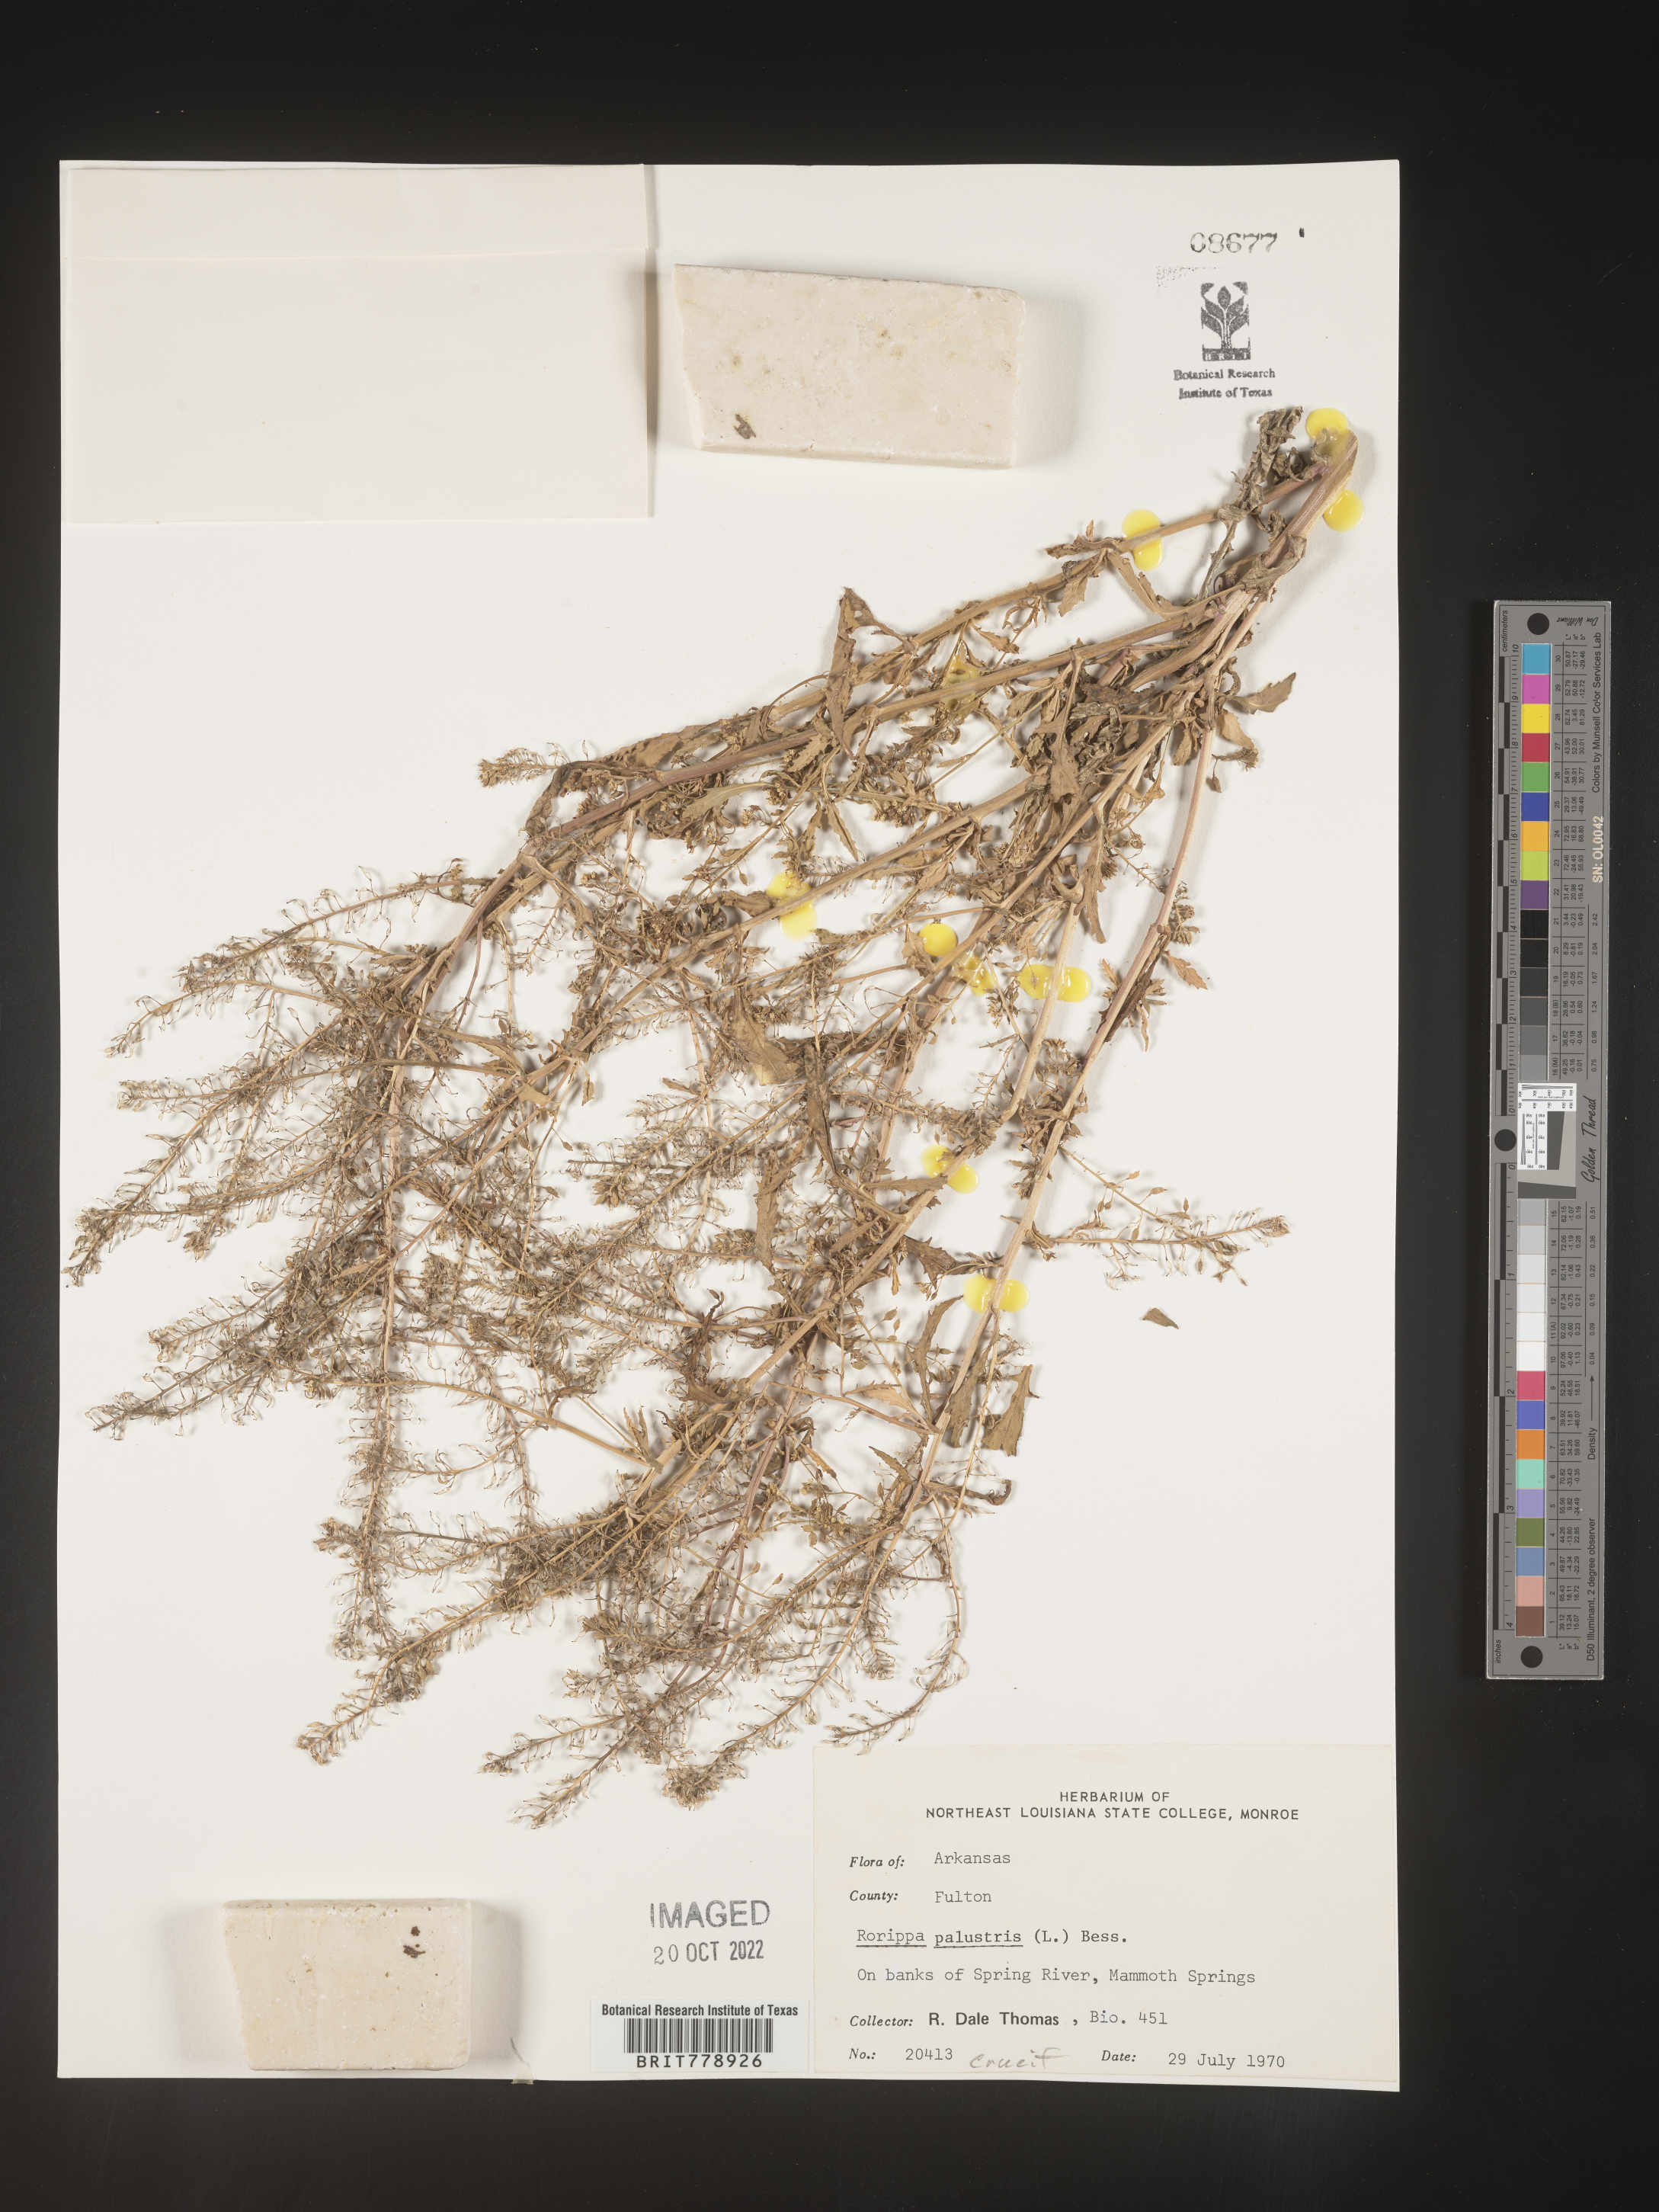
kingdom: Plantae
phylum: Tracheophyta
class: Magnoliopsida
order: Brassicales
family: Brassicaceae
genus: Rorippa
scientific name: Rorippa palustris
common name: Marsh yellow-cress
